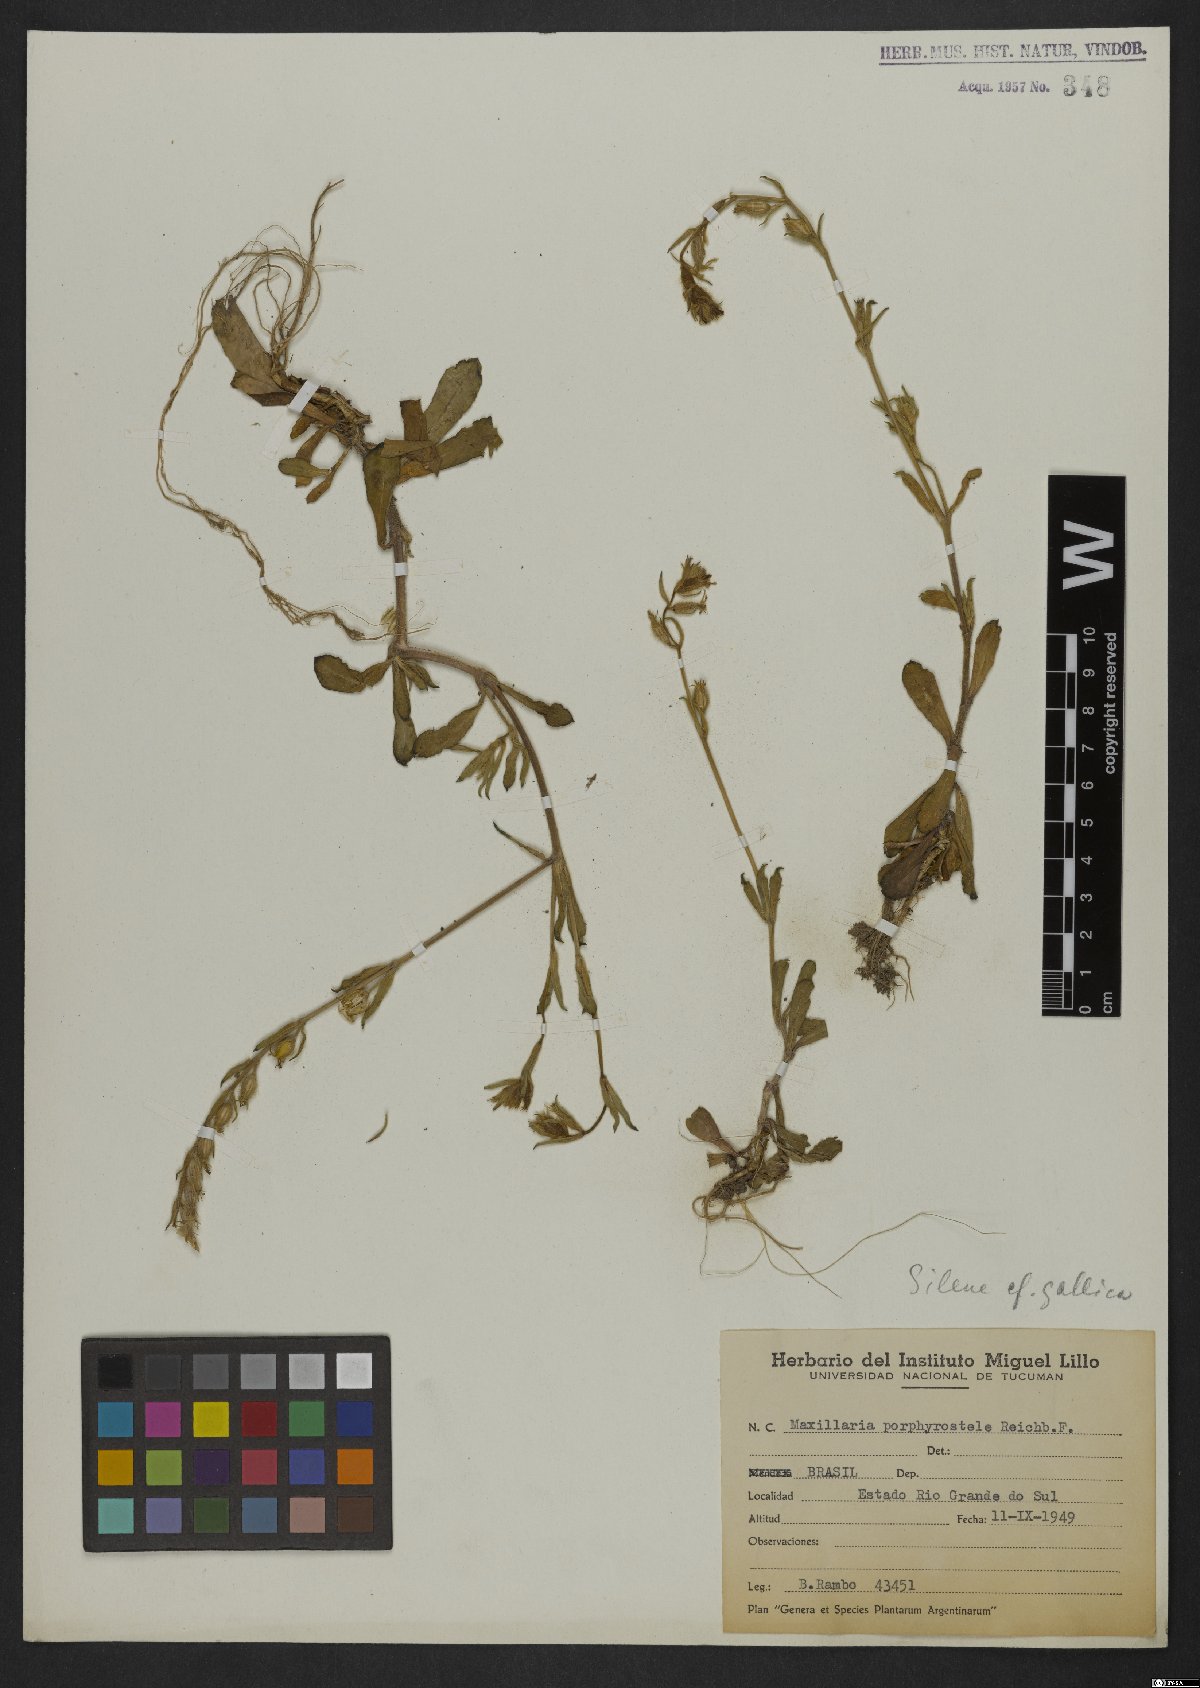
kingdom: Plantae
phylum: Tracheophyta
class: Magnoliopsida
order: Caryophyllales
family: Caryophyllaceae
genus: Silene
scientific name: Silene gallica
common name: Small-flowered catchfly
